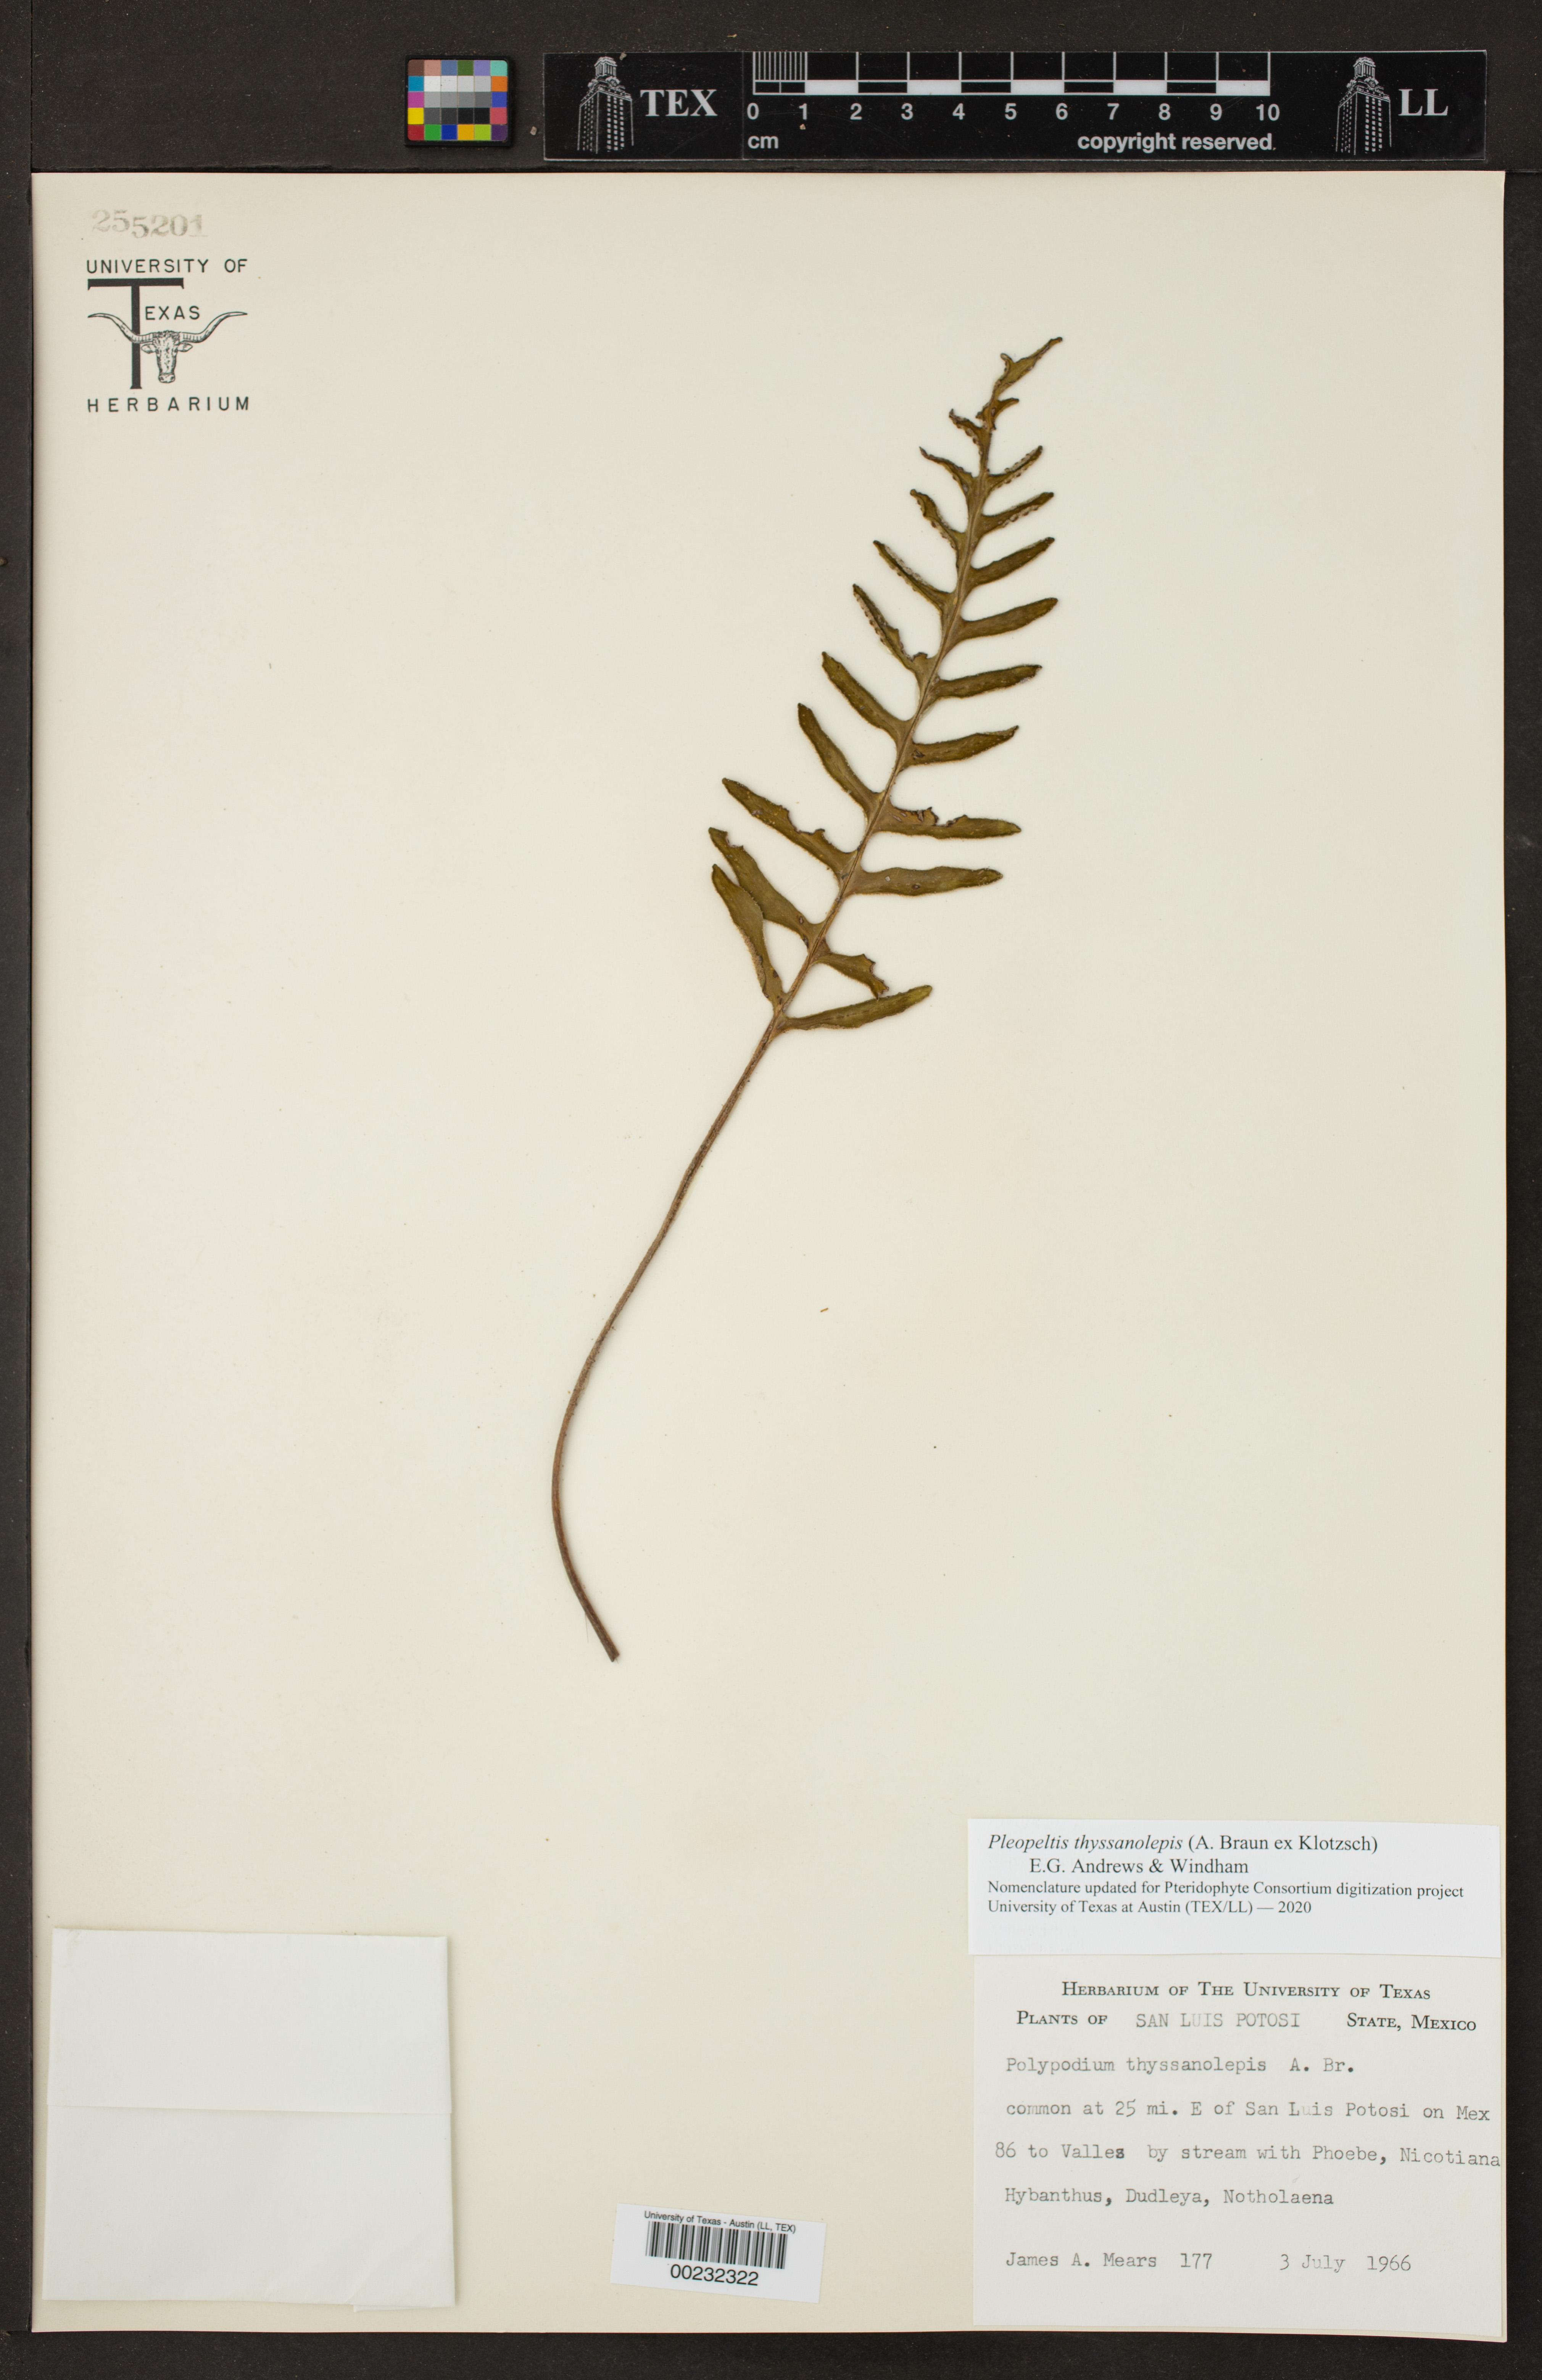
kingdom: Plantae
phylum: Tracheophyta
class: Polypodiopsida
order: Polypodiales
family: Polypodiaceae
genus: Pleopeltis
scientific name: Pleopeltis thyssanolepis
